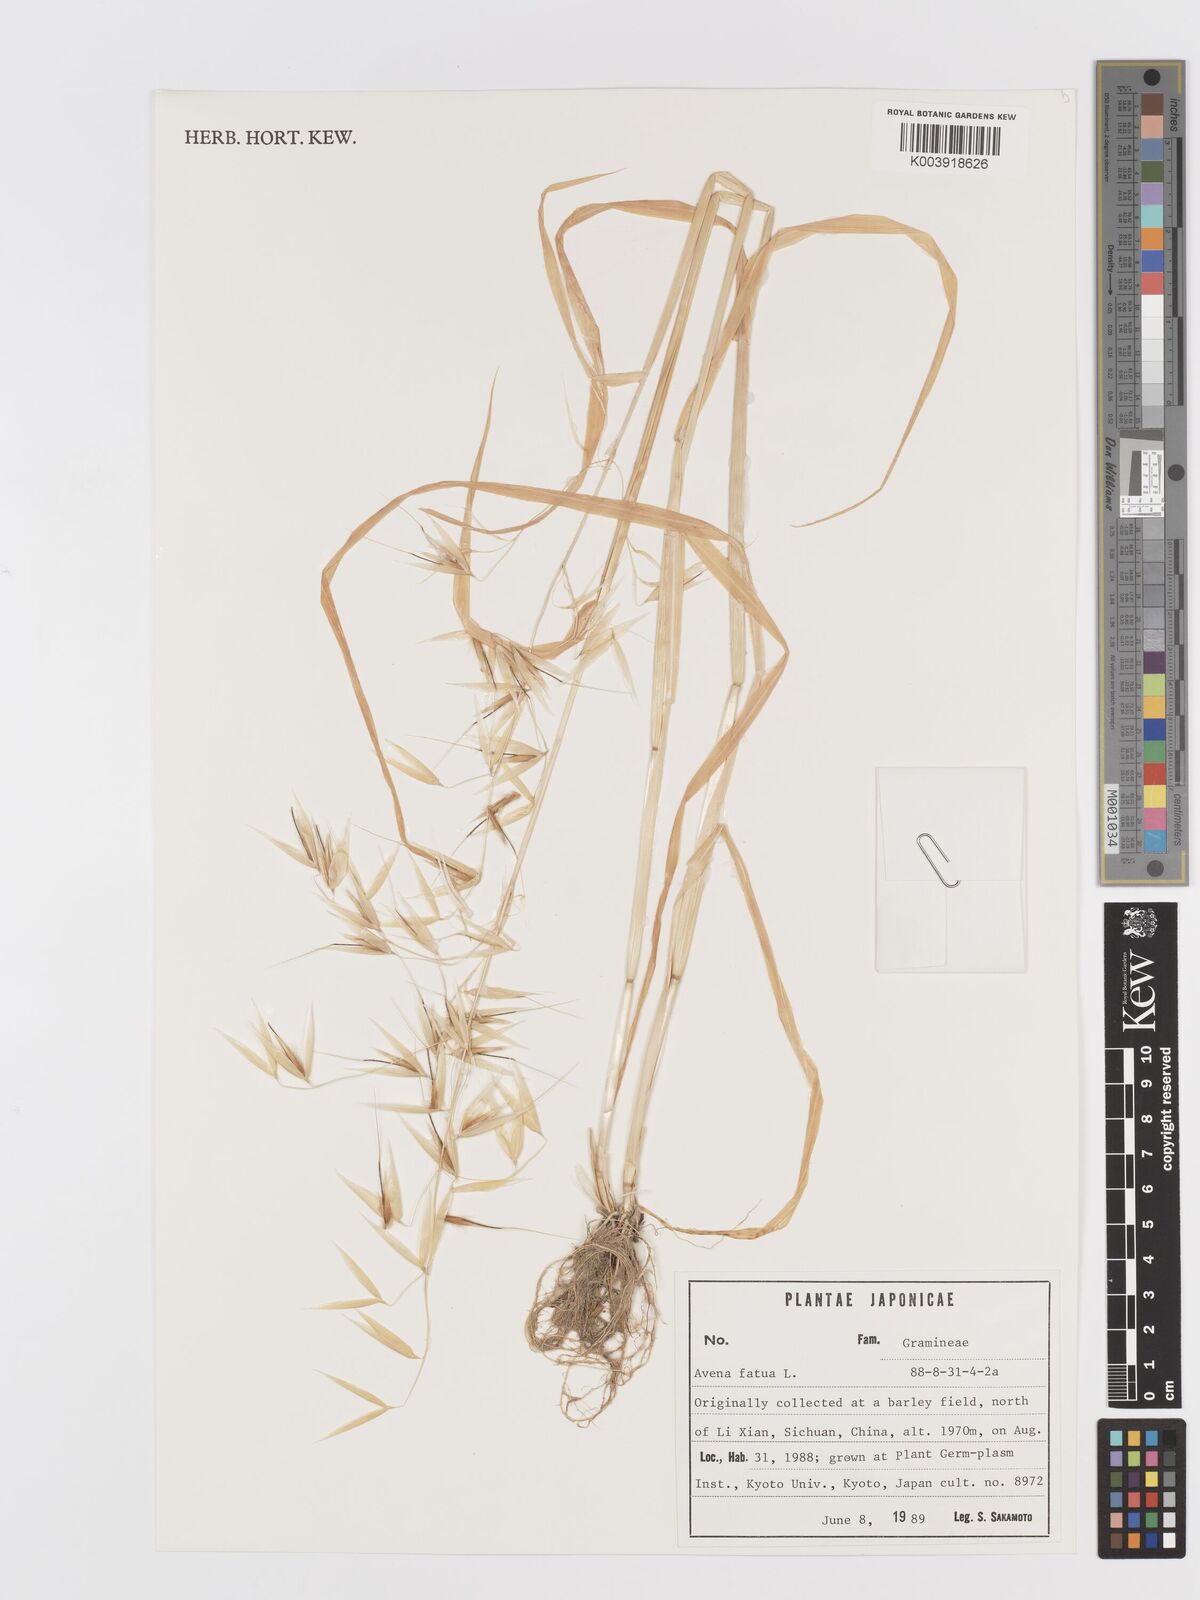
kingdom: Plantae
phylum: Tracheophyta
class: Liliopsida
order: Poales
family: Poaceae
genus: Avena
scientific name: Avena fatua
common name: Wild oat
